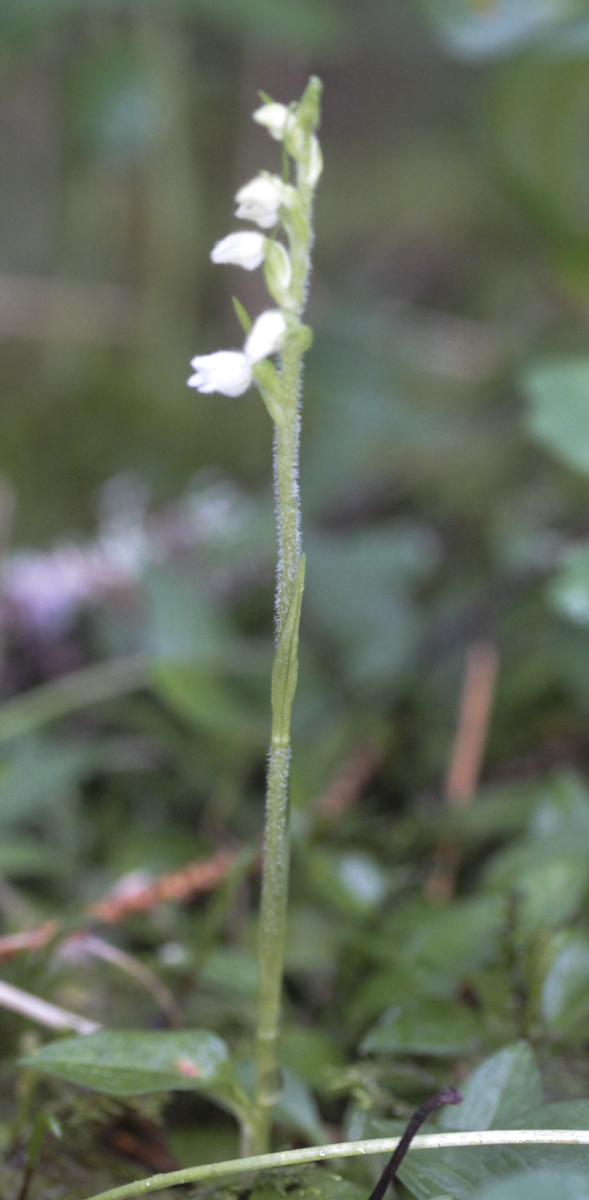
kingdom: Plantae
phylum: Tracheophyta
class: Liliopsida
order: Asparagales
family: Orchidaceae
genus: Goodyera
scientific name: Goodyera repens
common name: Creeping lady's-tresses
